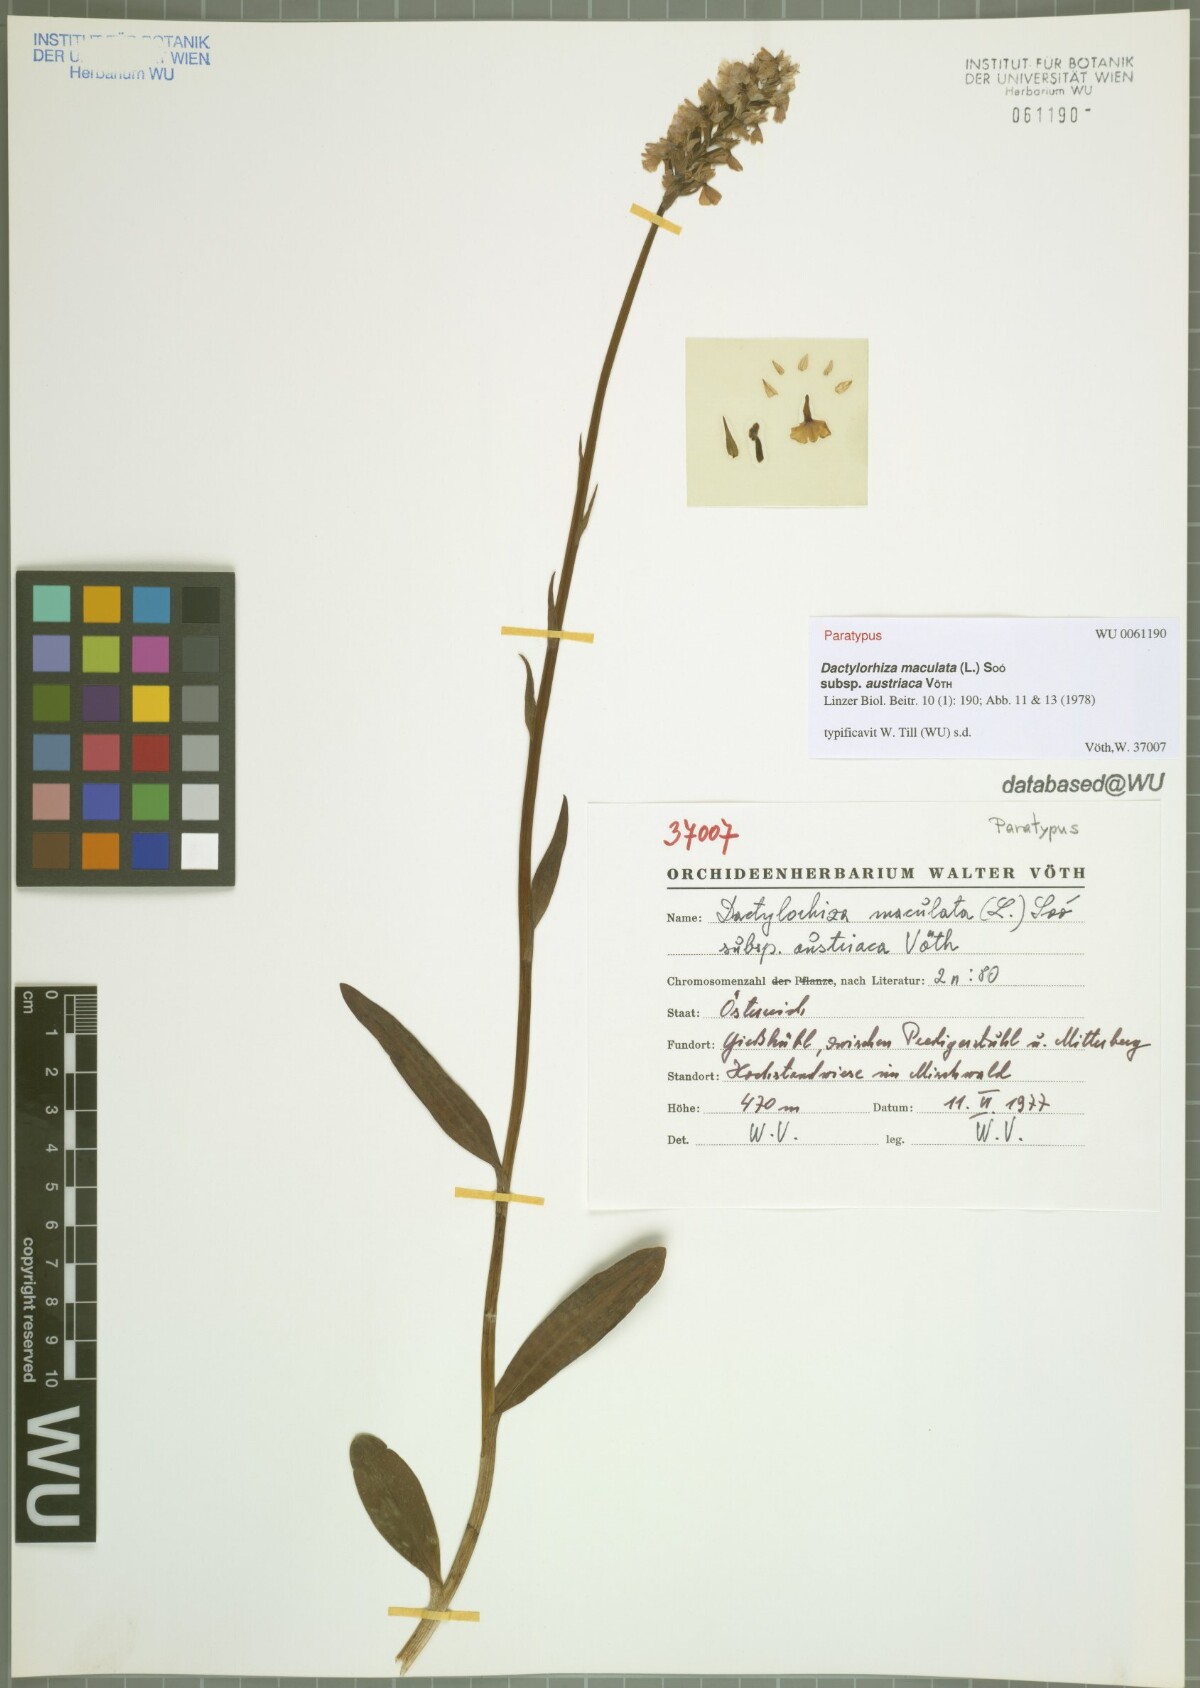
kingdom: Plantae
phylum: Tracheophyta
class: Liliopsida
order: Asparagales
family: Orchidaceae
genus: Dactylorhiza
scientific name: Dactylorhiza maculata
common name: Heath spotted-orchid
